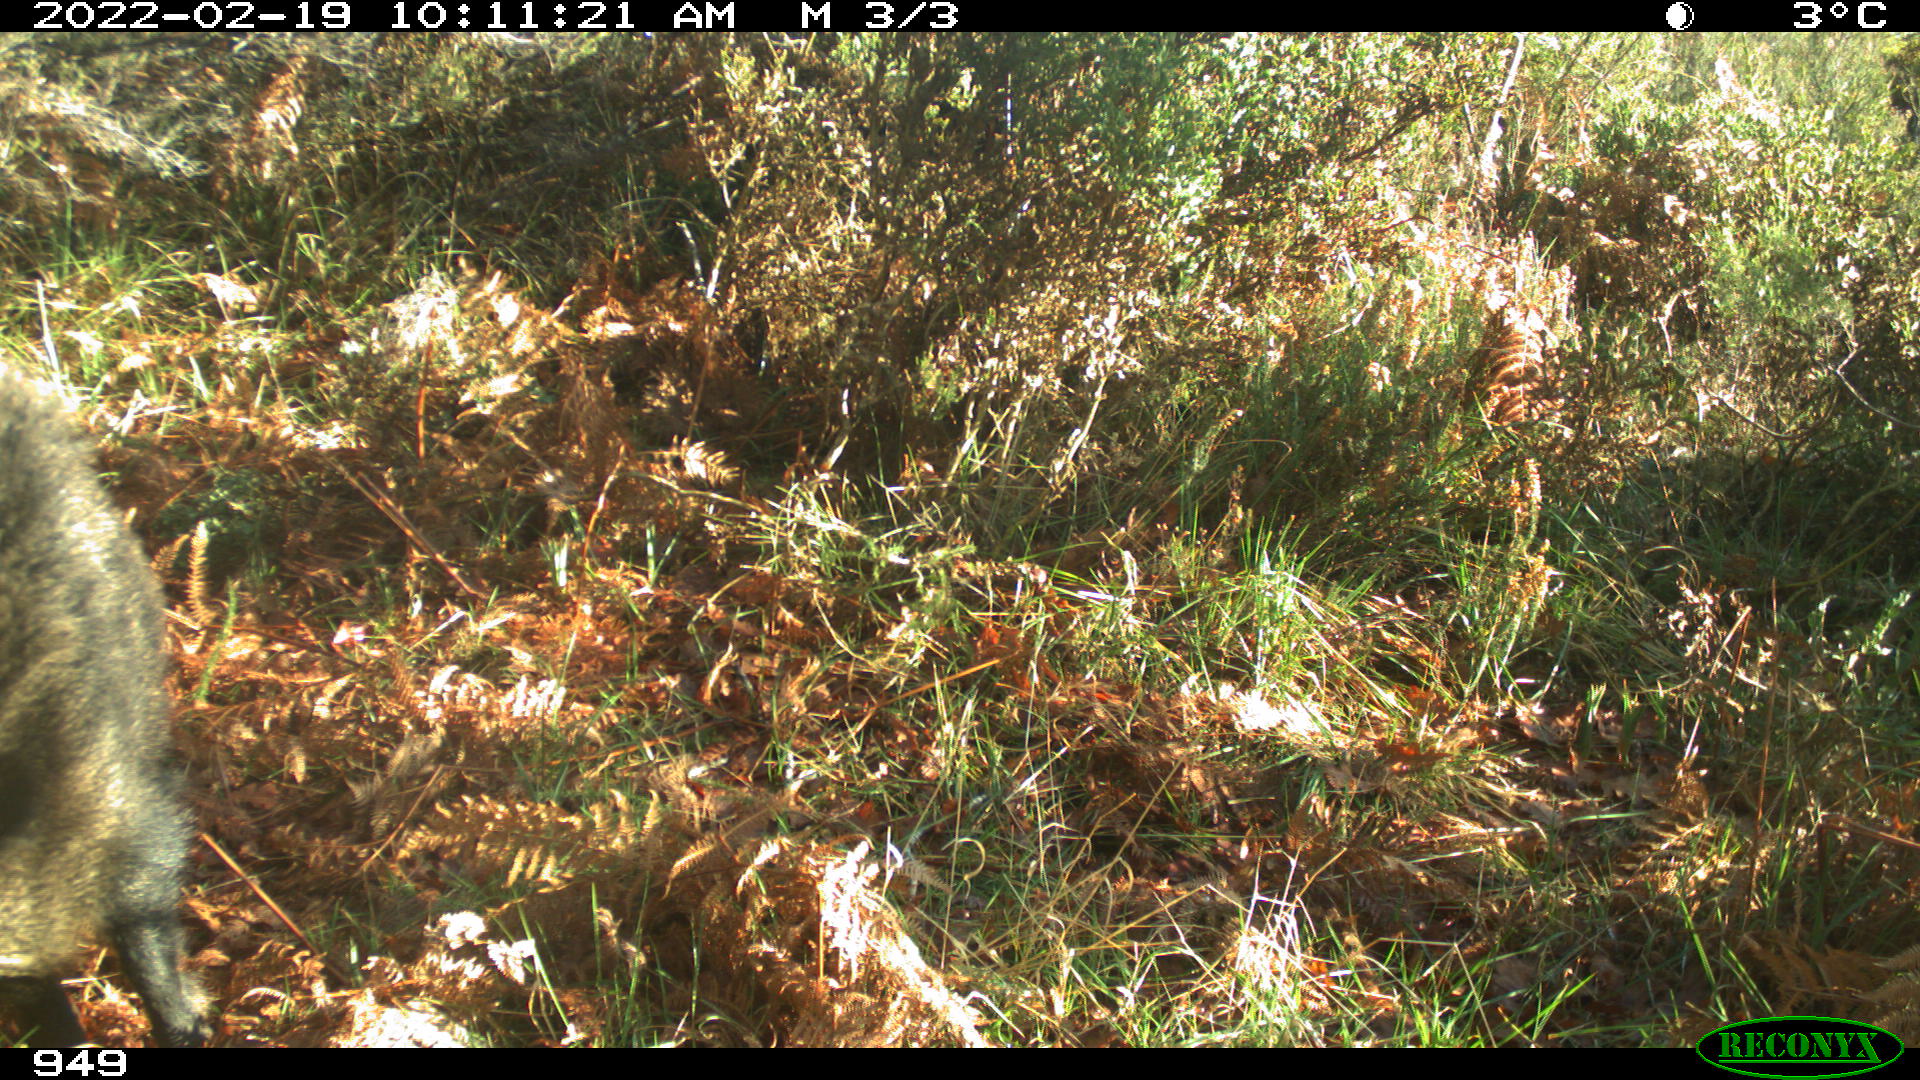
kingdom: Animalia
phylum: Chordata
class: Mammalia
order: Artiodactyla
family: Suidae
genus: Sus
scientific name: Sus scrofa
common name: Wild boar
